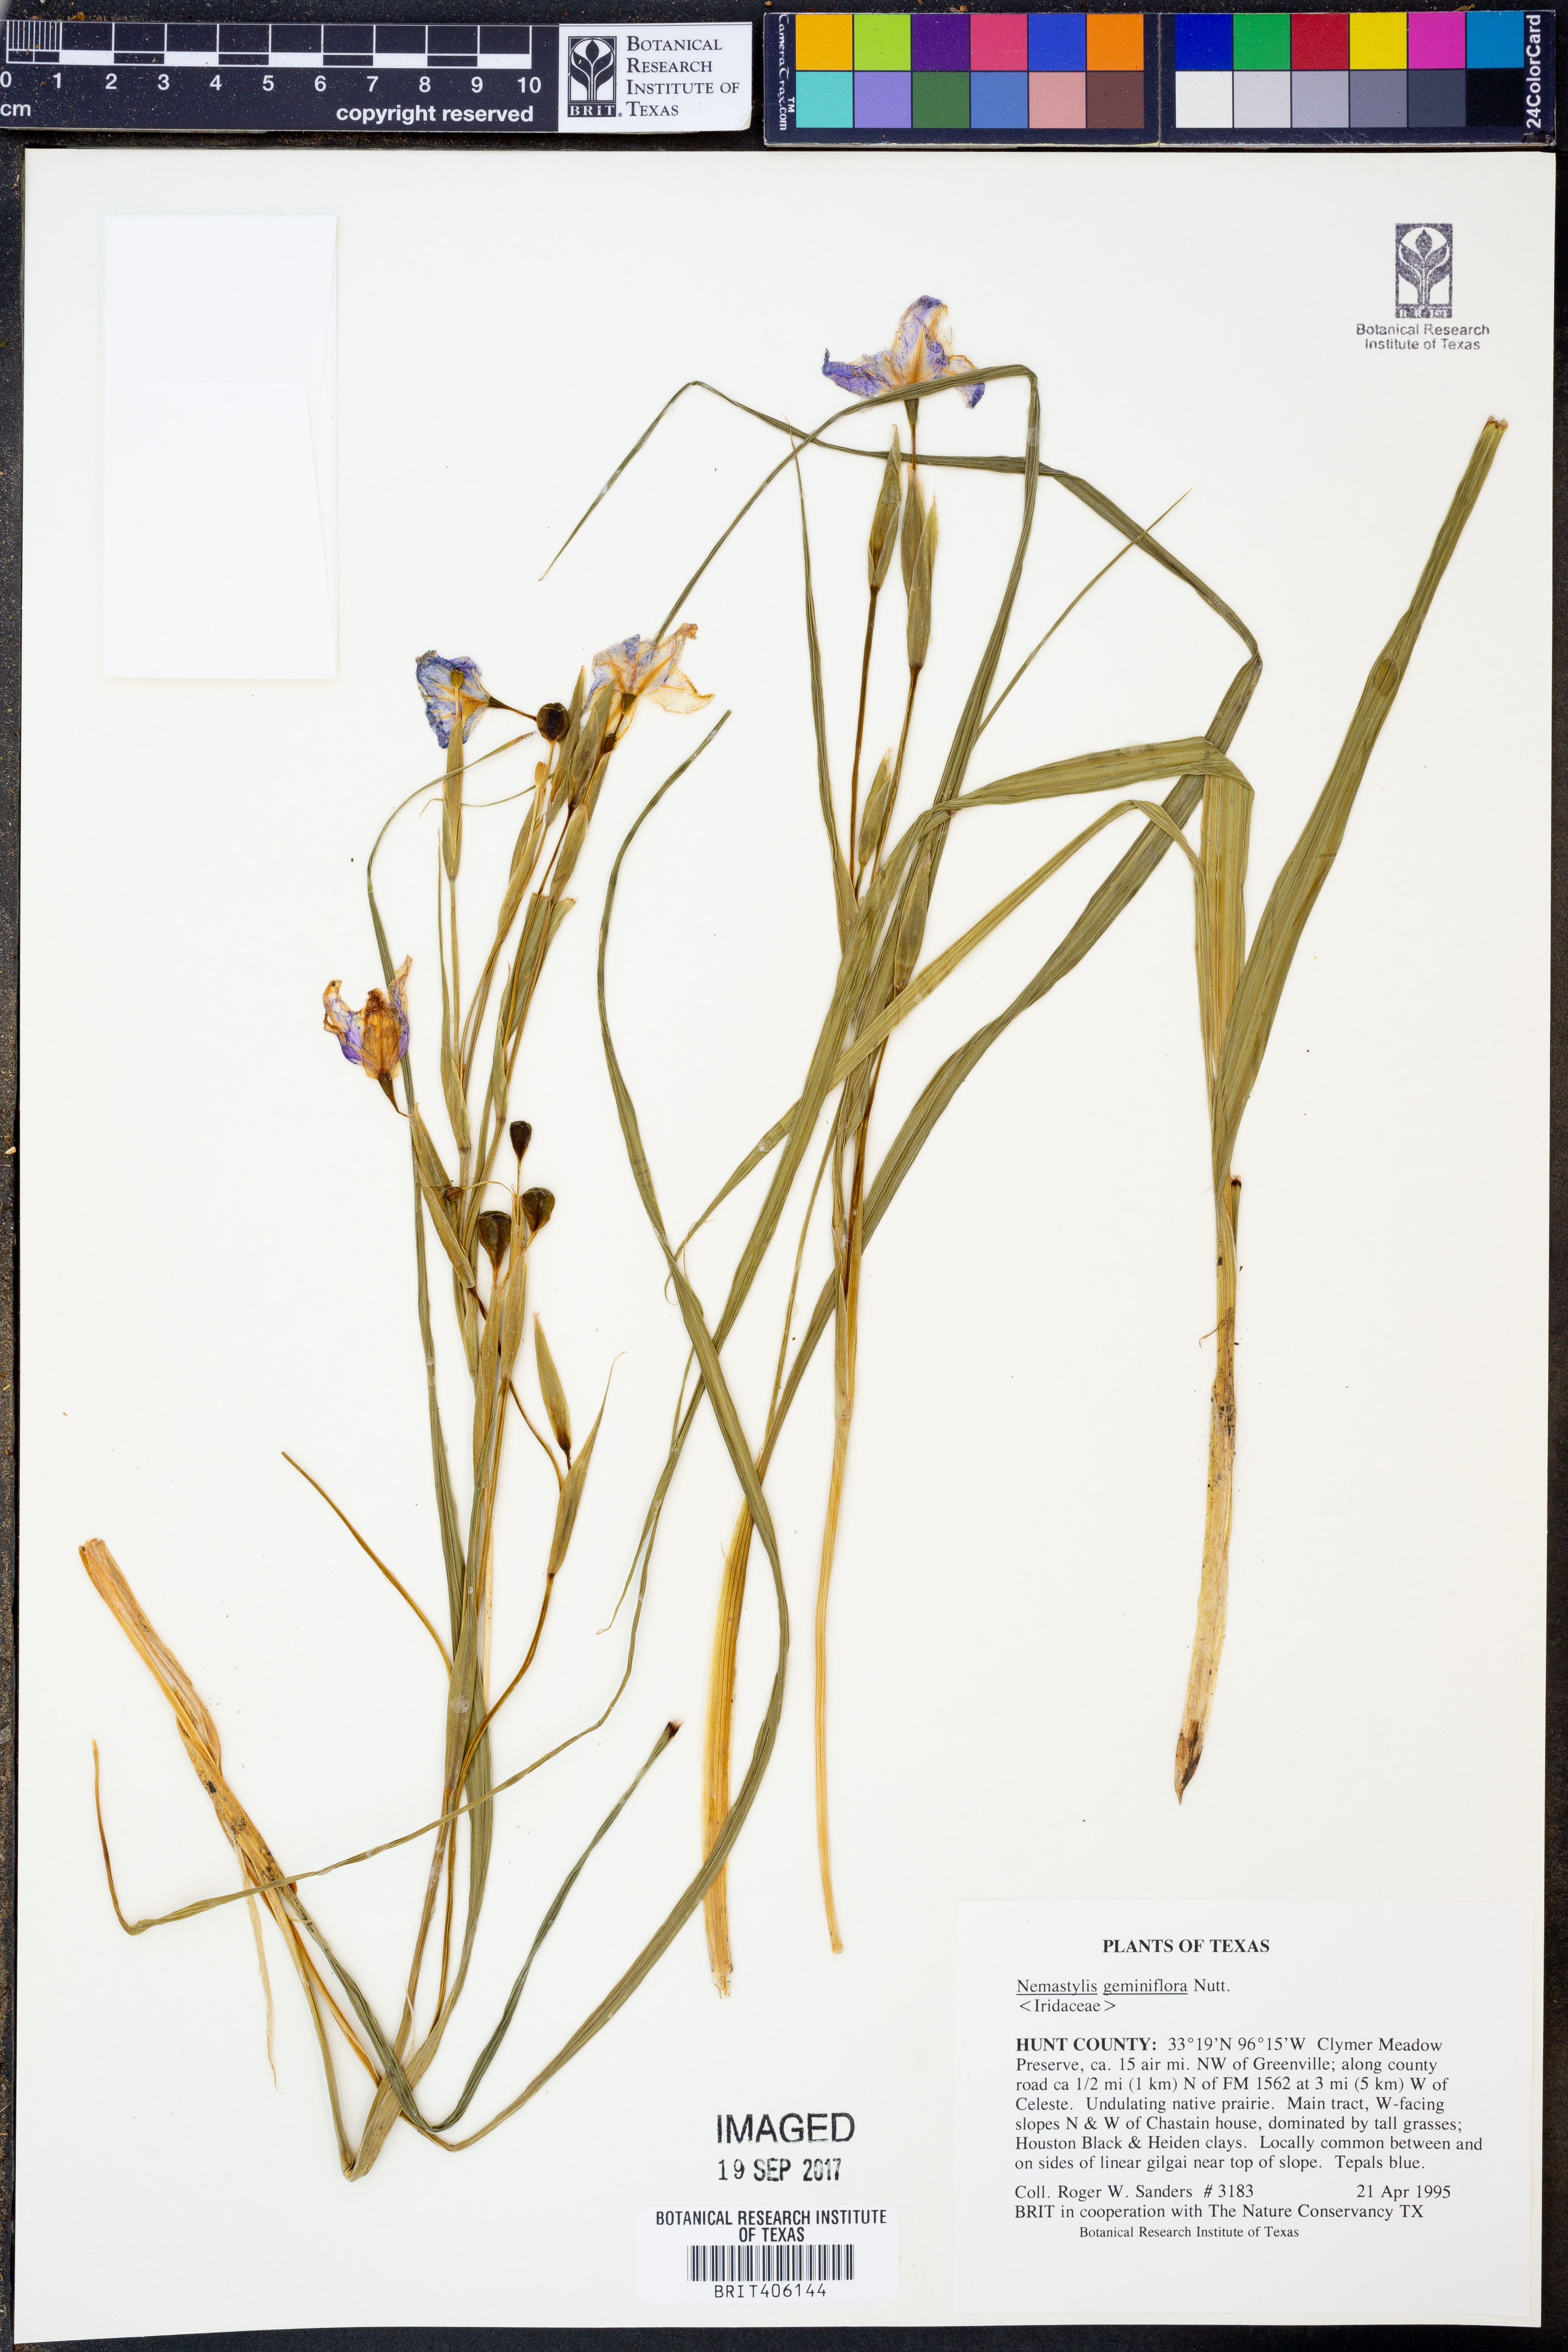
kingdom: Plantae
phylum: Tracheophyta
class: Liliopsida
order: Asparagales
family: Iridaceae
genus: Nemastylis
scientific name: Nemastylis geminiflora
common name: Prairie celestial
